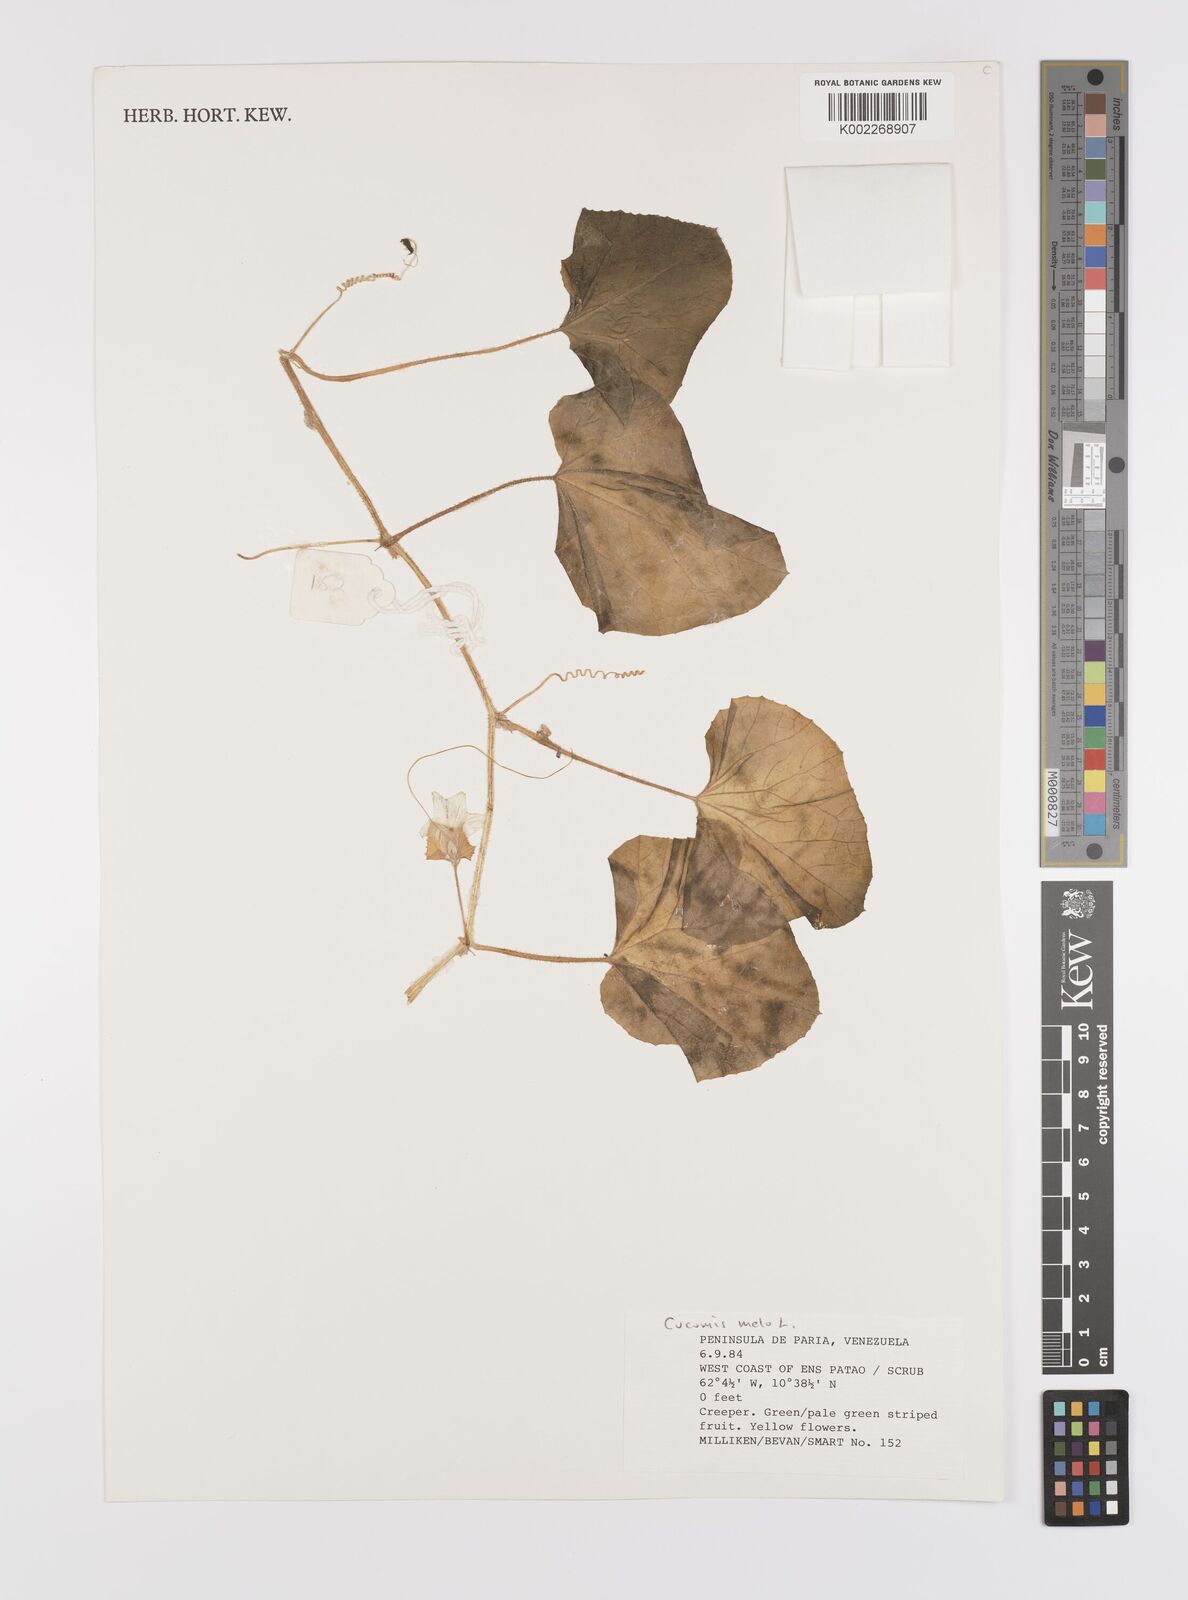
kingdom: Plantae
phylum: Tracheophyta
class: Magnoliopsida
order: Cucurbitales
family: Cucurbitaceae
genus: Cucumis
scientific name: Cucumis melo
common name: Melon
